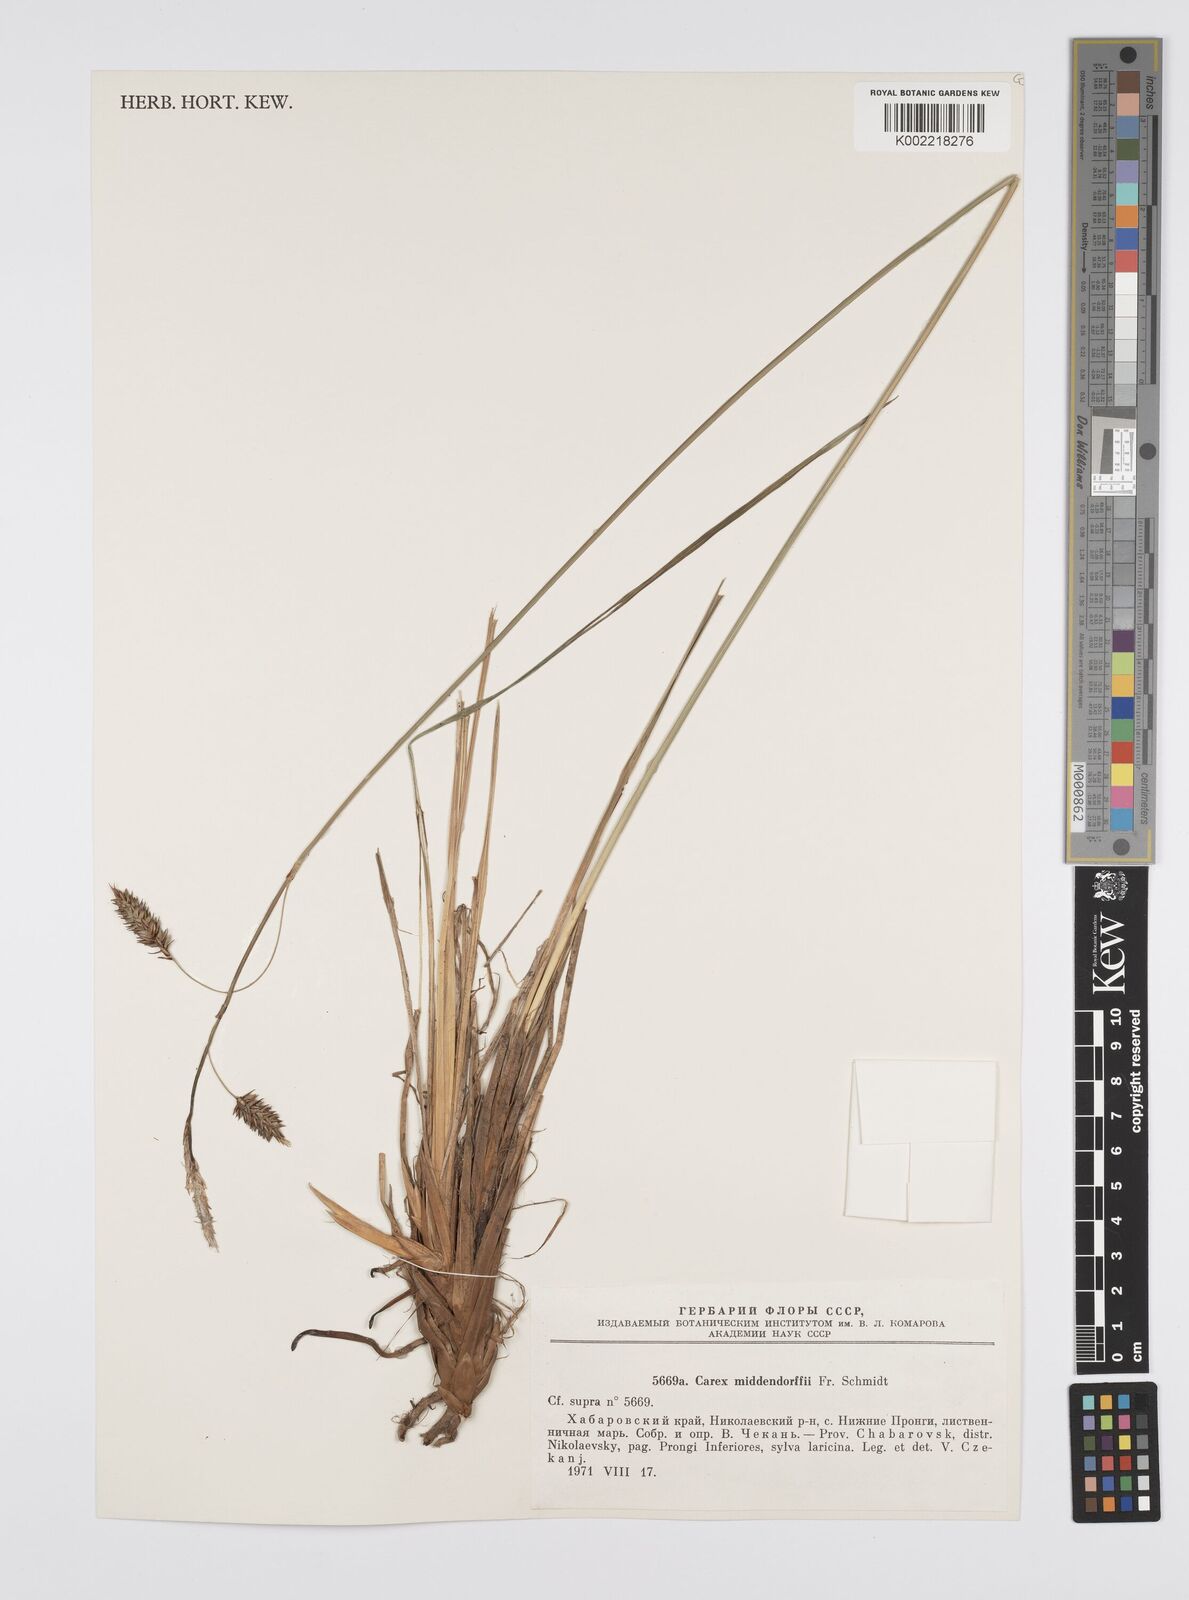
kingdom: Plantae
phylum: Tracheophyta
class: Liliopsida
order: Poales
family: Cyperaceae
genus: Carex
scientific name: Carex middendorffii
